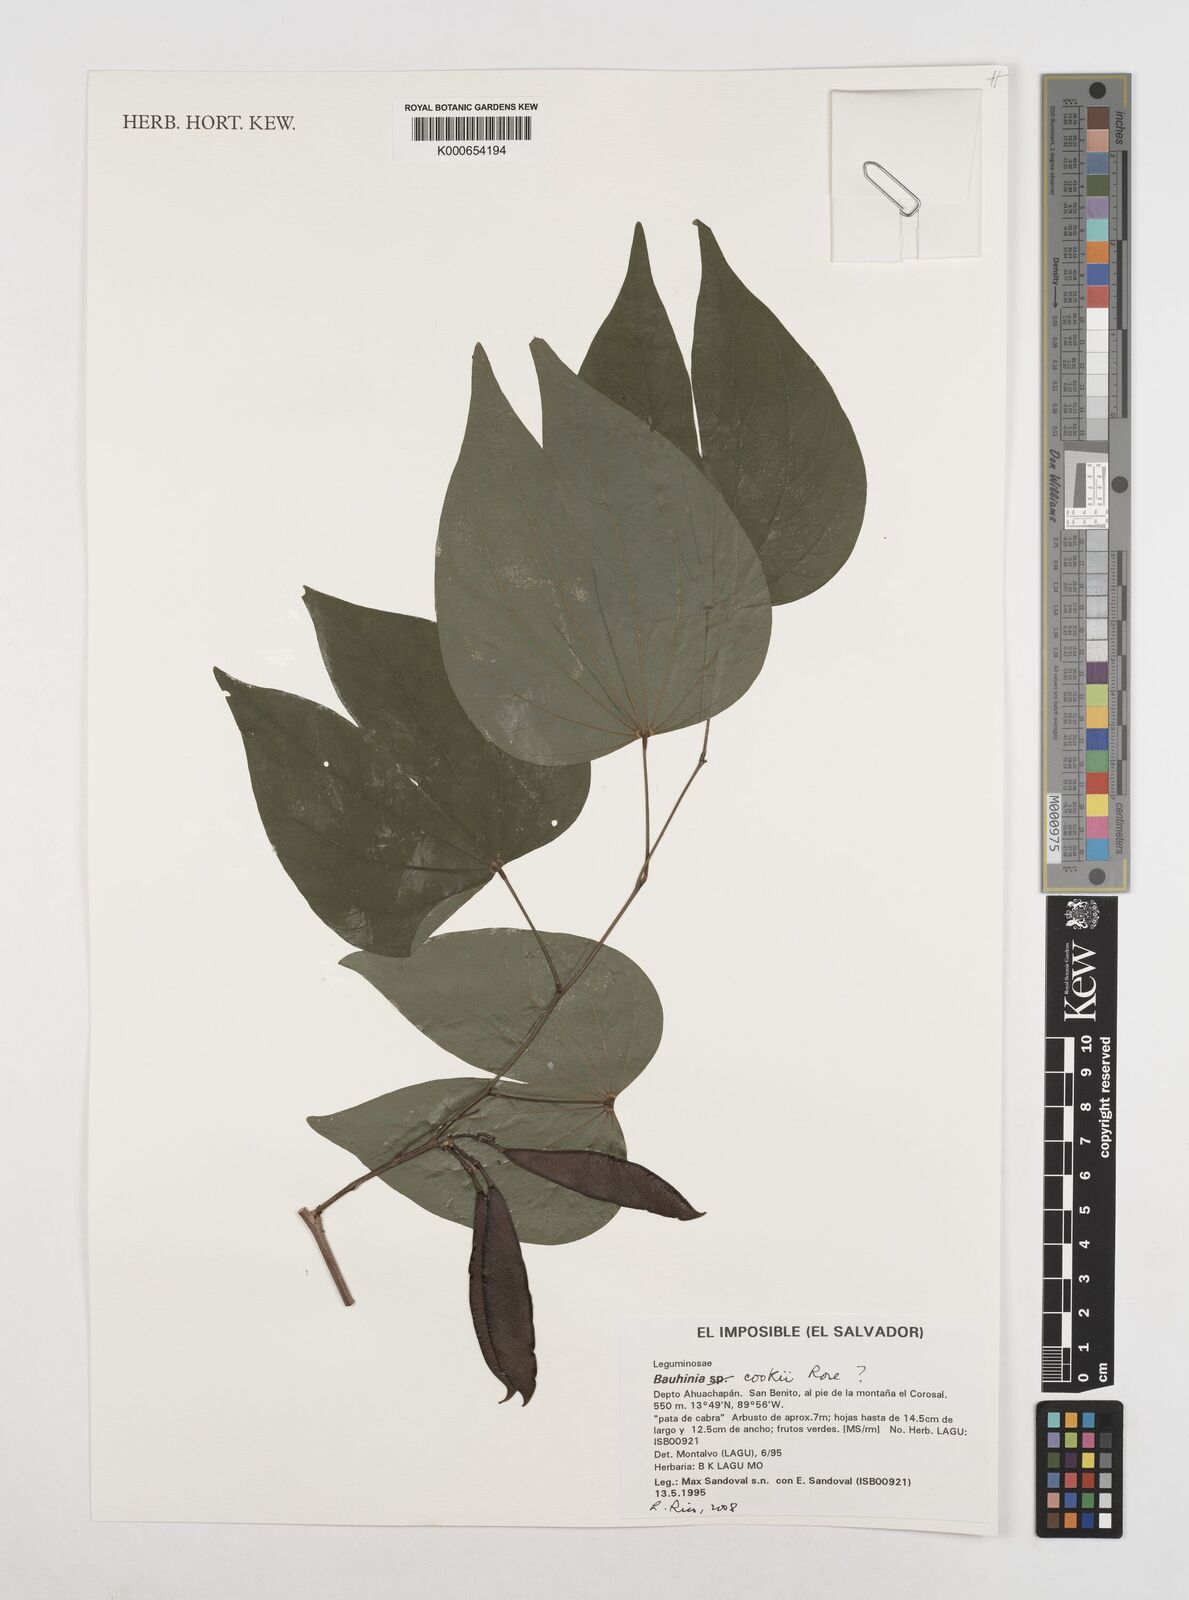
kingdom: Plantae
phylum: Tracheophyta
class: Magnoliopsida
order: Fabales
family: Fabaceae
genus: Bauhinia
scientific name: Bauhinia cookii
